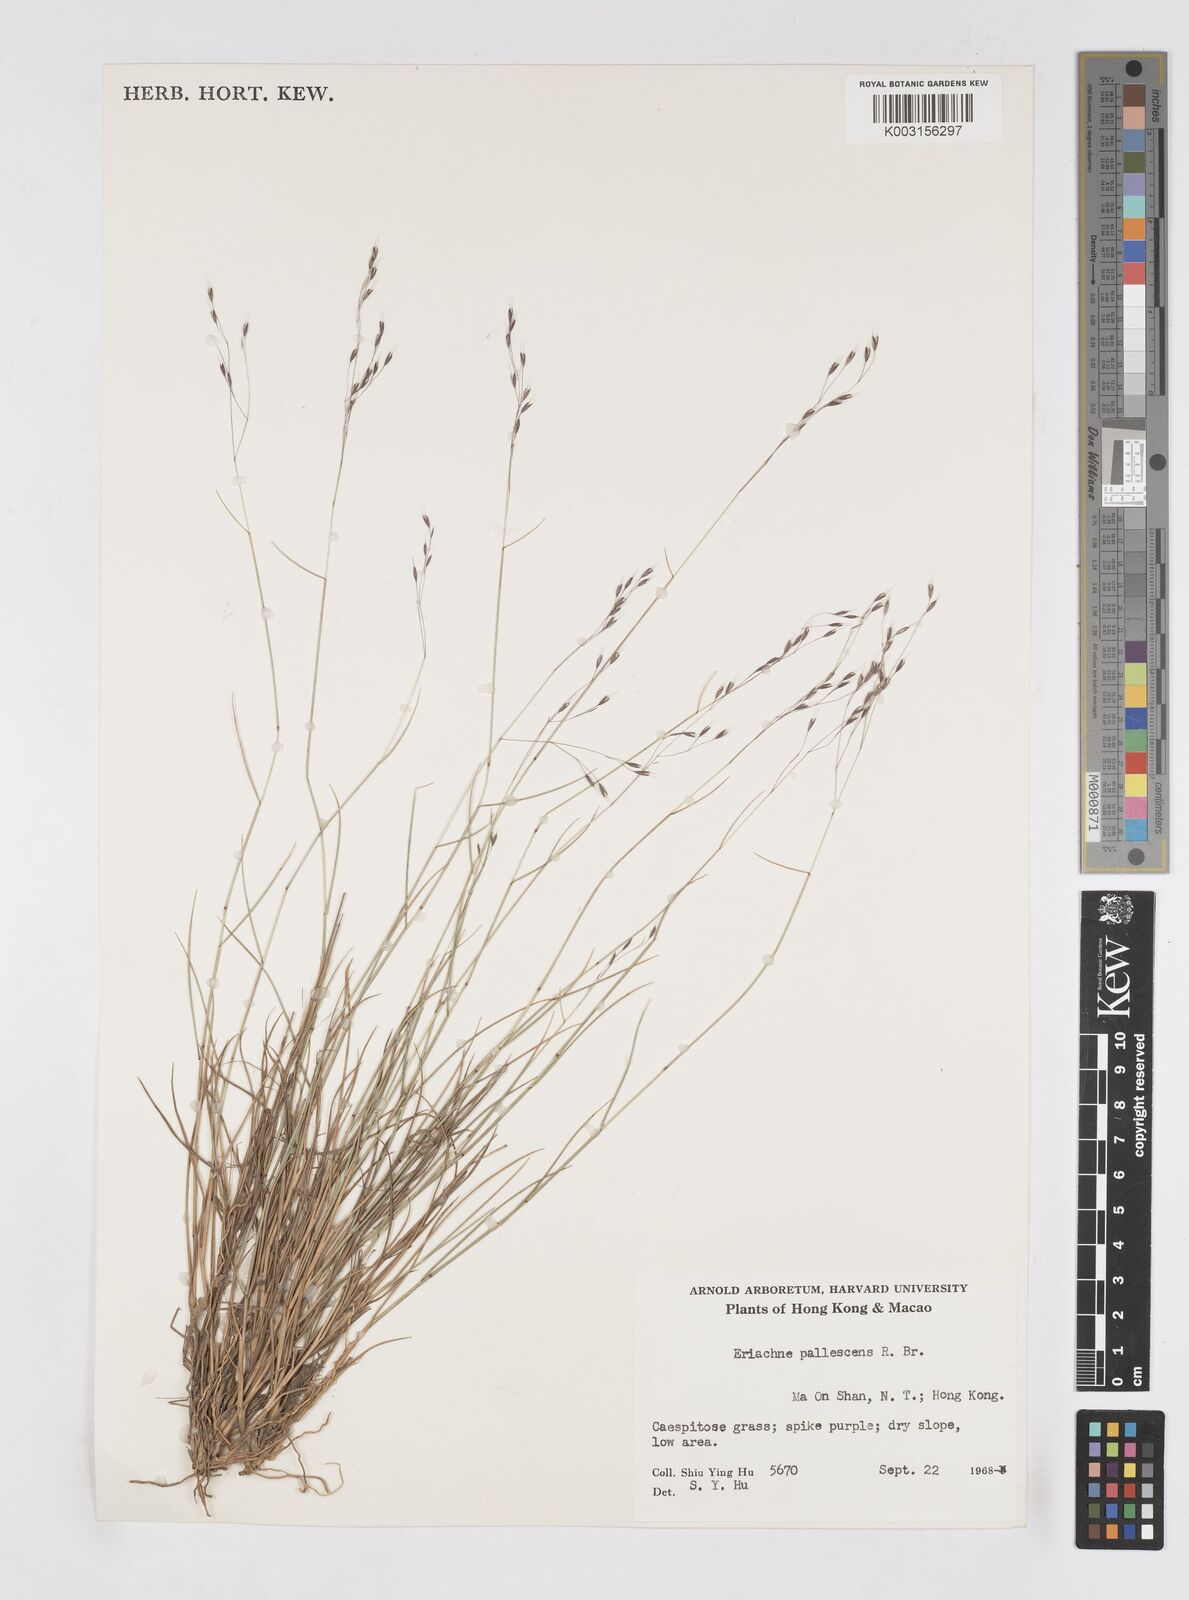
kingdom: Plantae
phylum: Tracheophyta
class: Liliopsida
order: Poales
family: Poaceae
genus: Eriachne
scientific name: Eriachne pallescens
